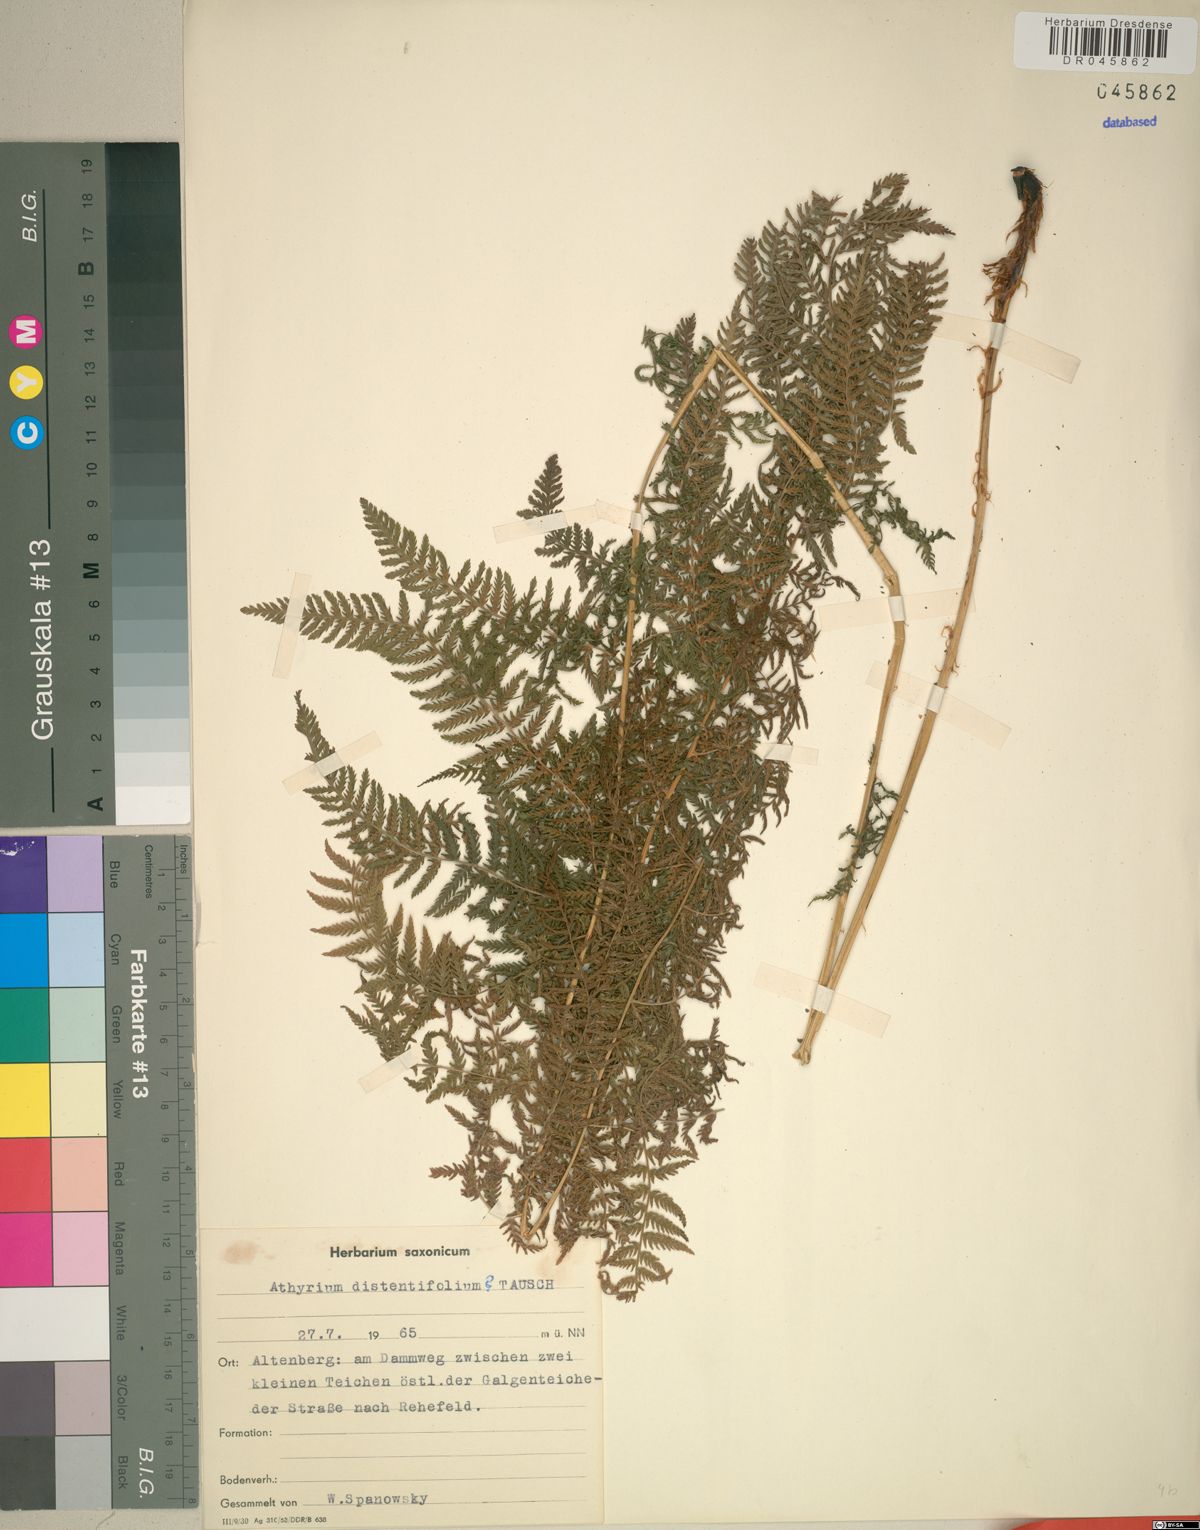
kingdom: Plantae
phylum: Tracheophyta
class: Polypodiopsida
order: Polypodiales
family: Athyriaceae
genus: Pseudathyrium
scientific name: Pseudathyrium alpestre
